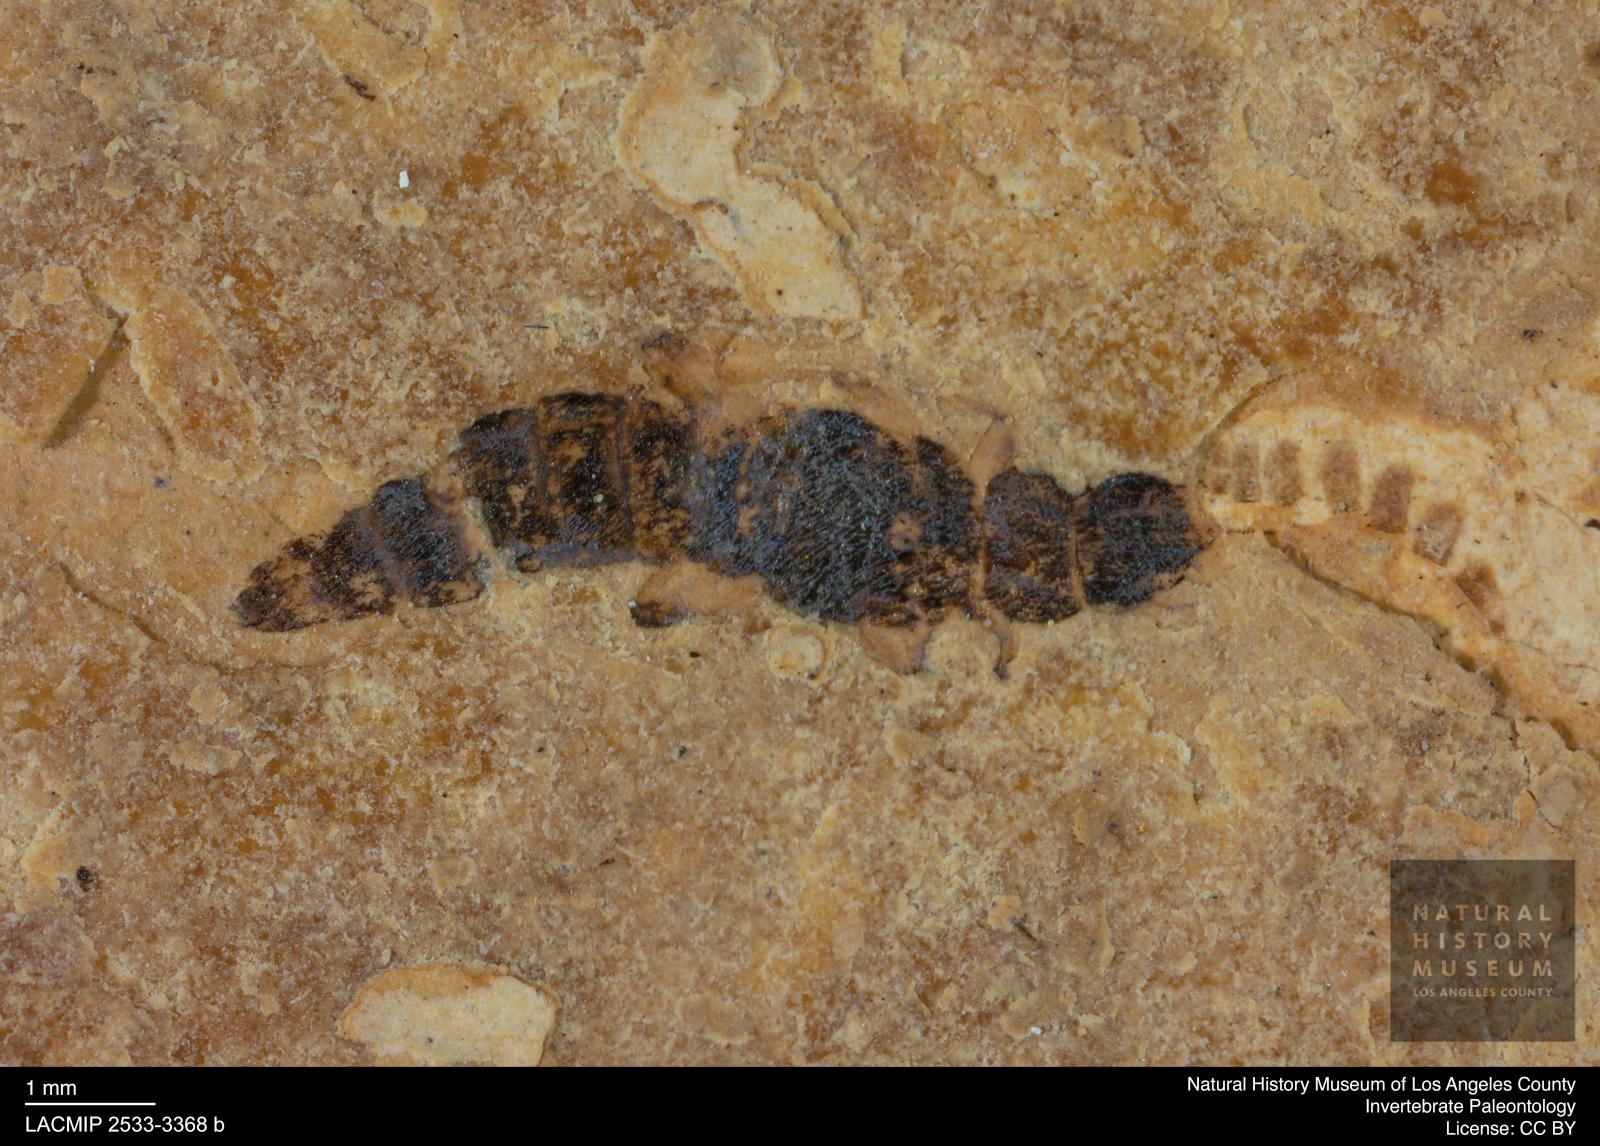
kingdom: Animalia
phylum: Arthropoda
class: Insecta
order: Coleoptera
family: Staphylinidae
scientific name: Staphylinidae
